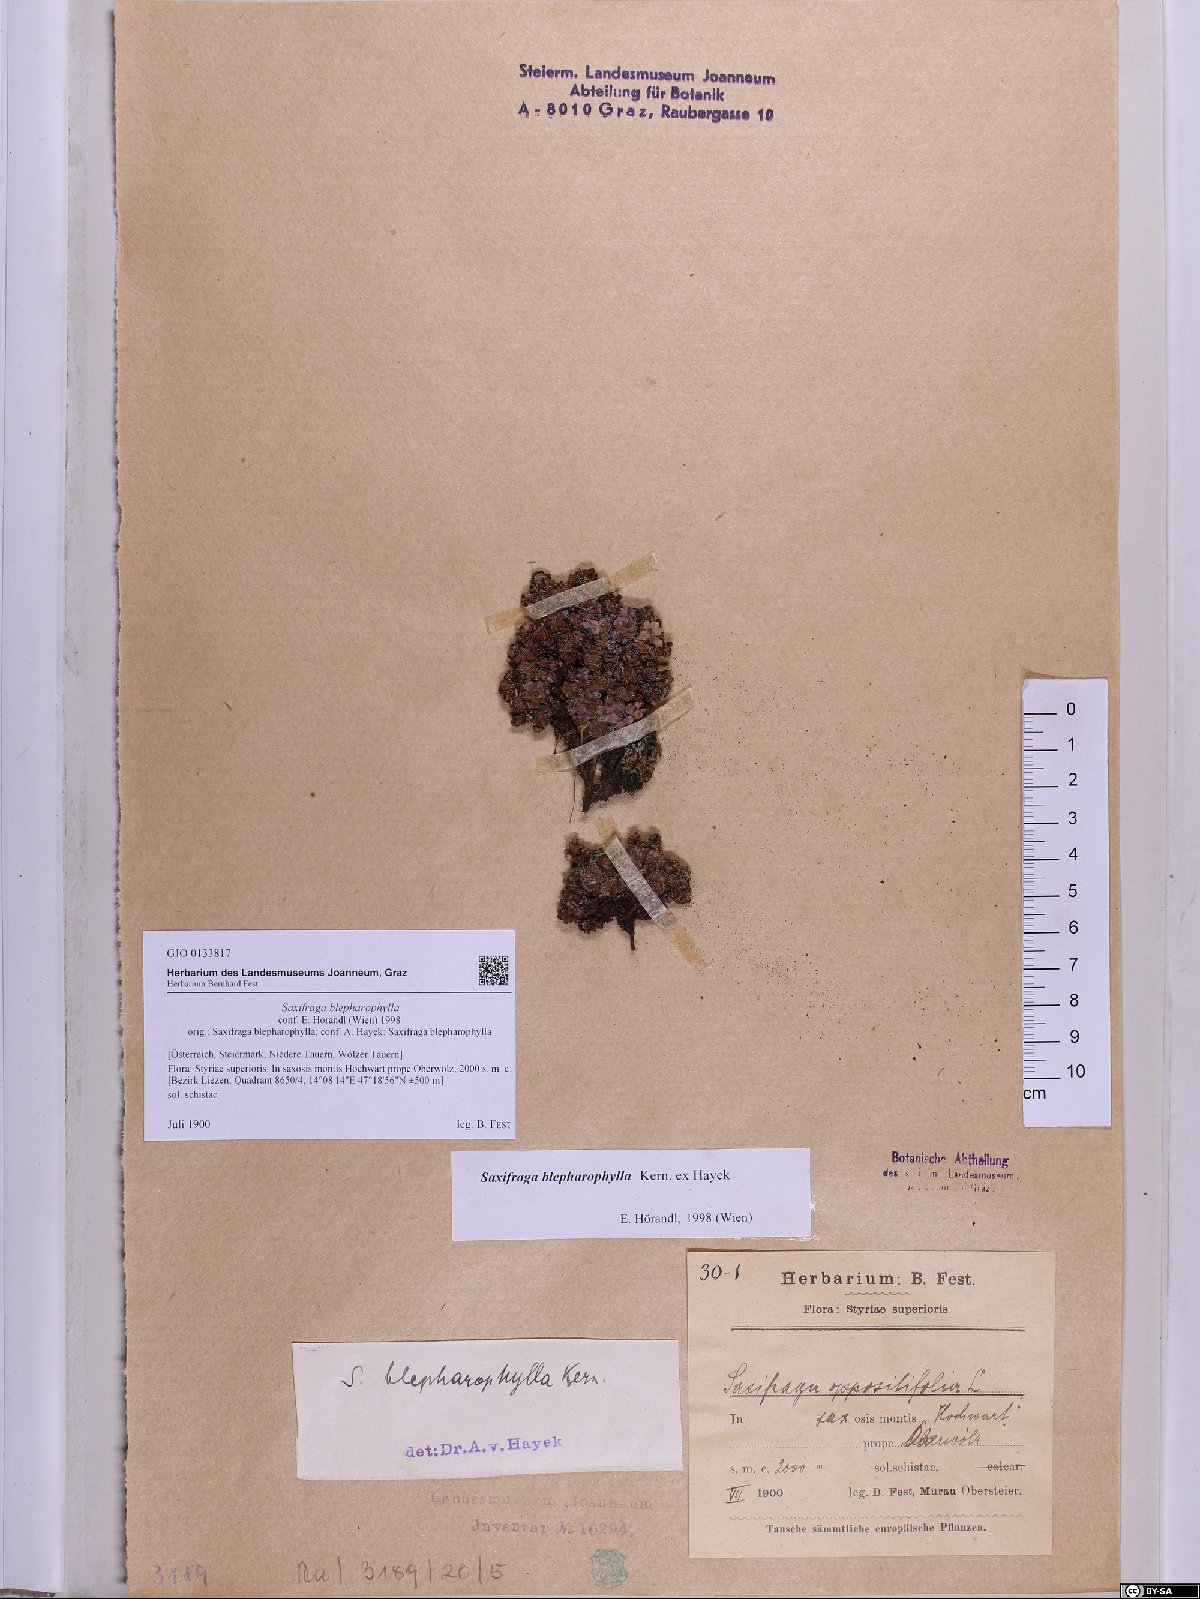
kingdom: Plantae
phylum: Tracheophyta
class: Magnoliopsida
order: Saxifragales
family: Saxifragaceae
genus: Saxifraga
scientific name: Saxifraga oppositifolia
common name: Purple saxifrage
